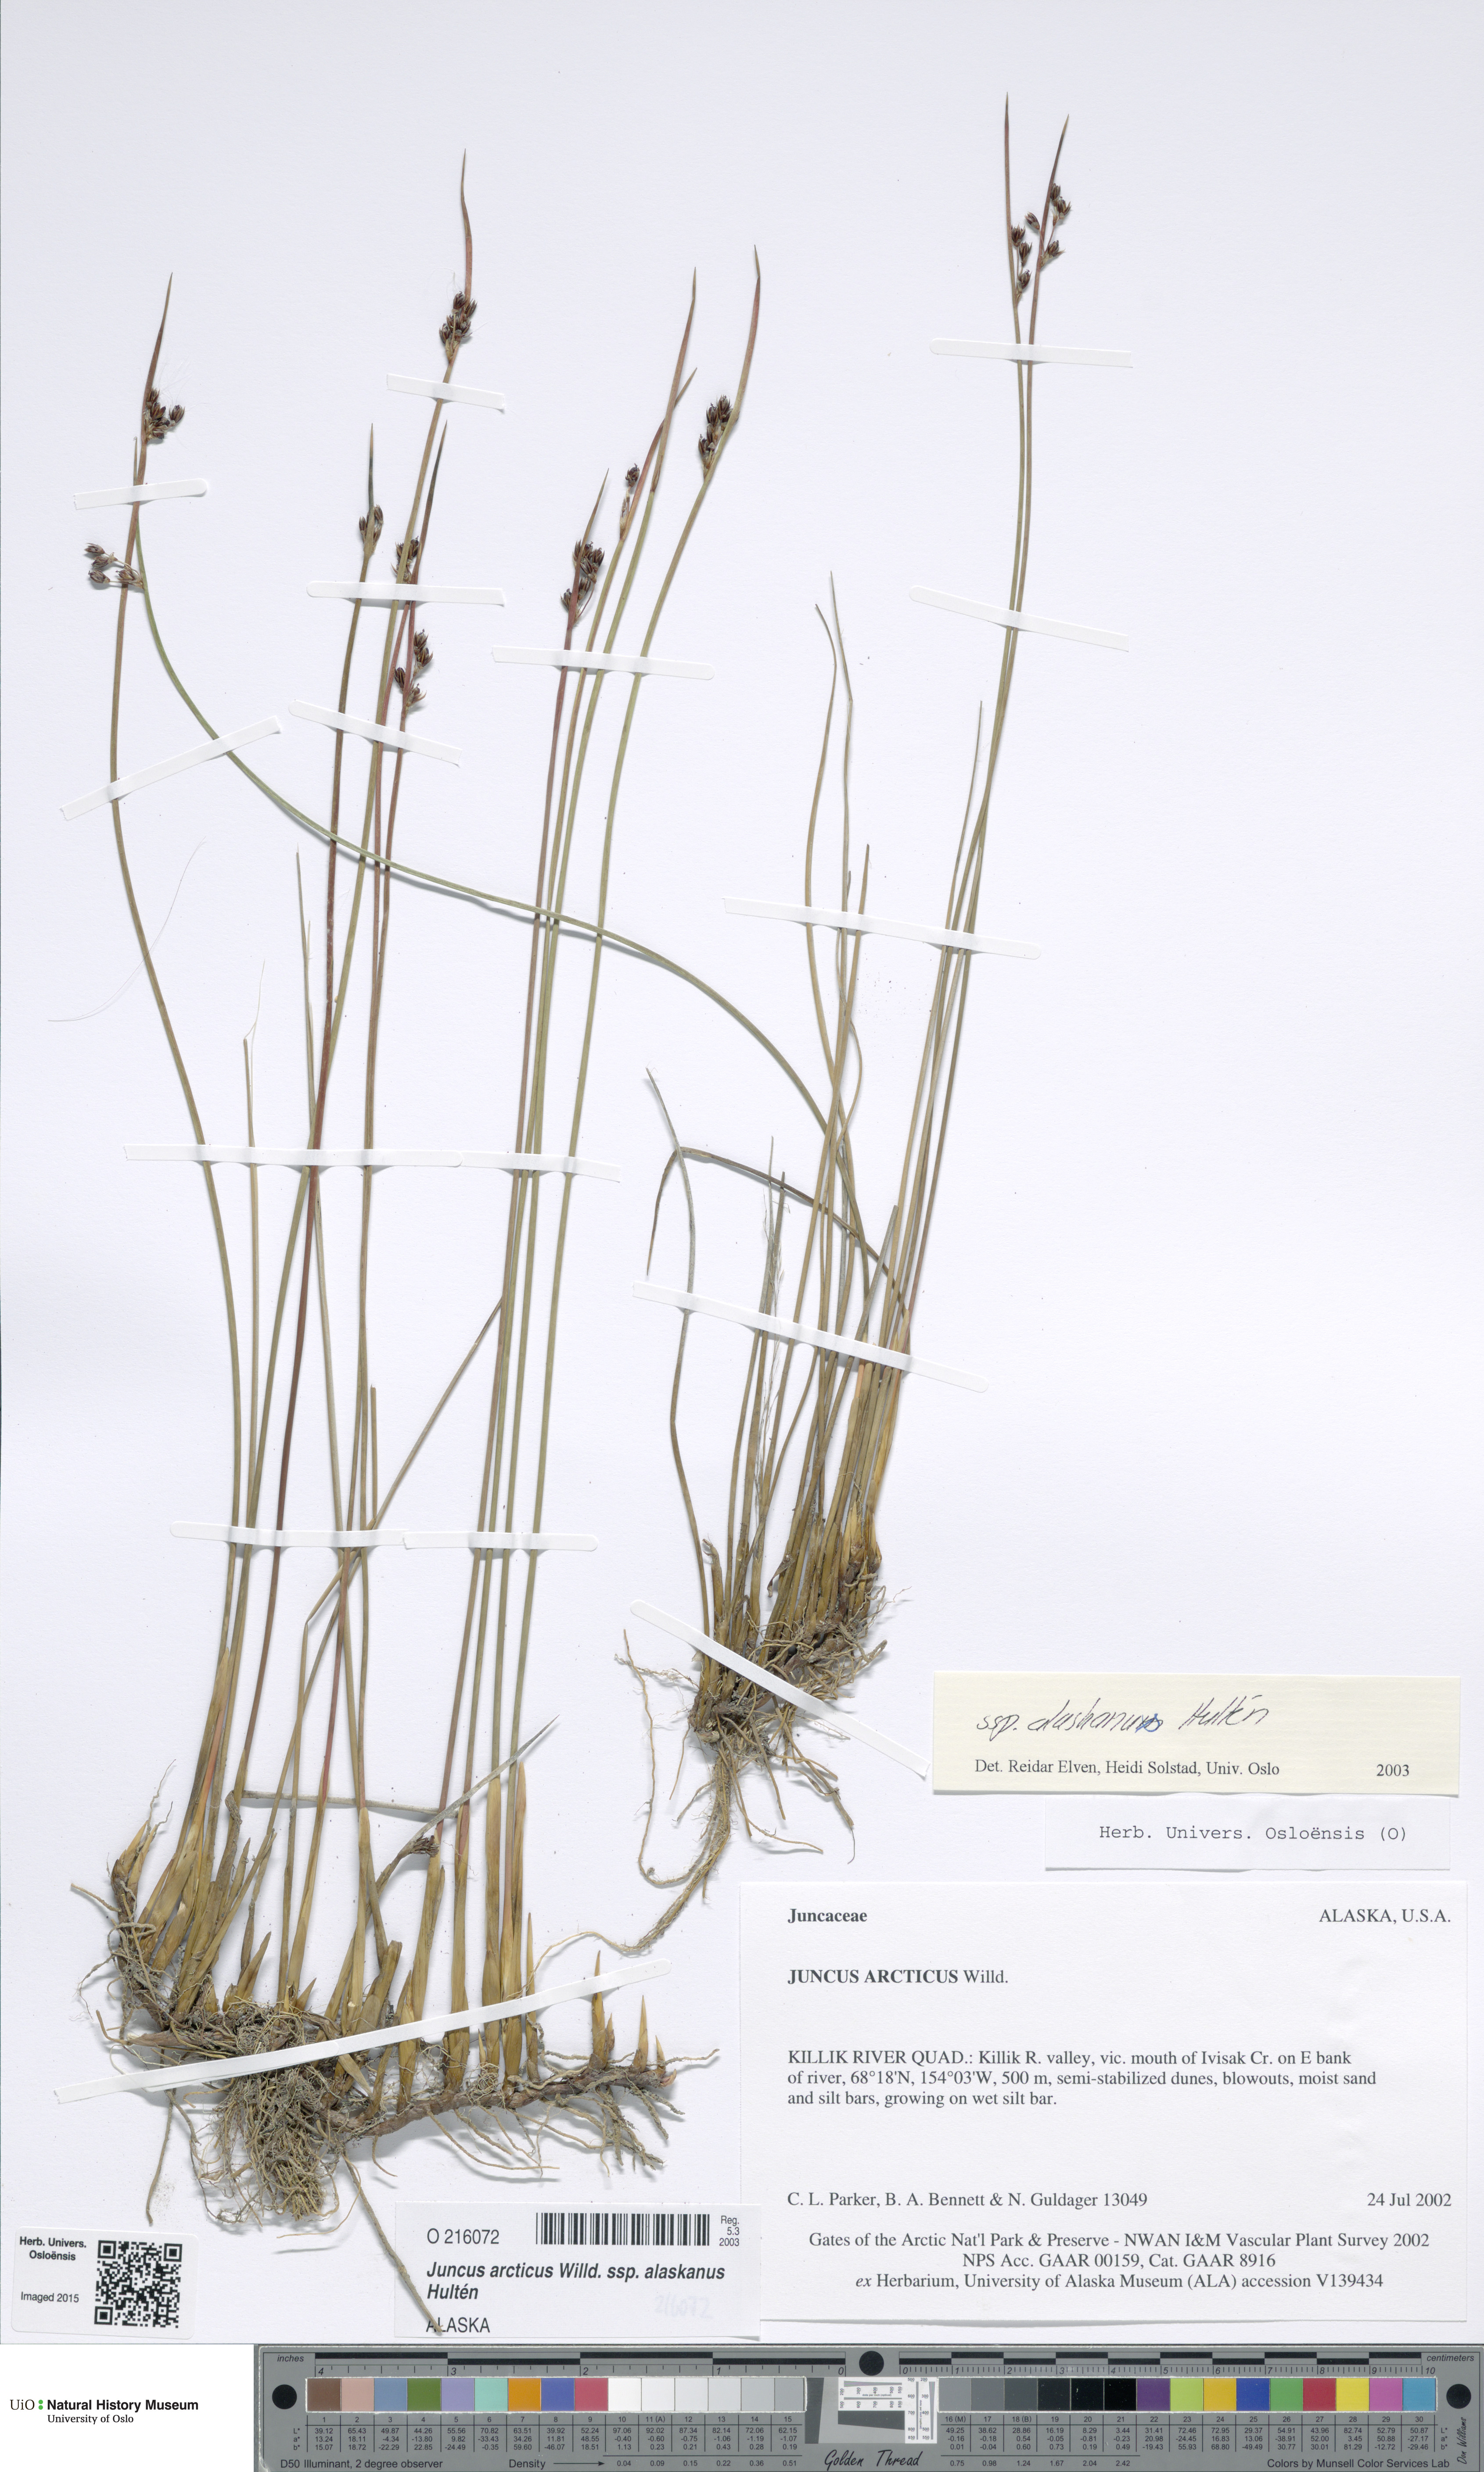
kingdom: Plantae
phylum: Tracheophyta
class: Liliopsida
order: Poales
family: Juncaceae
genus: Juncus
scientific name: Juncus arcticus
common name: Arctic rush
